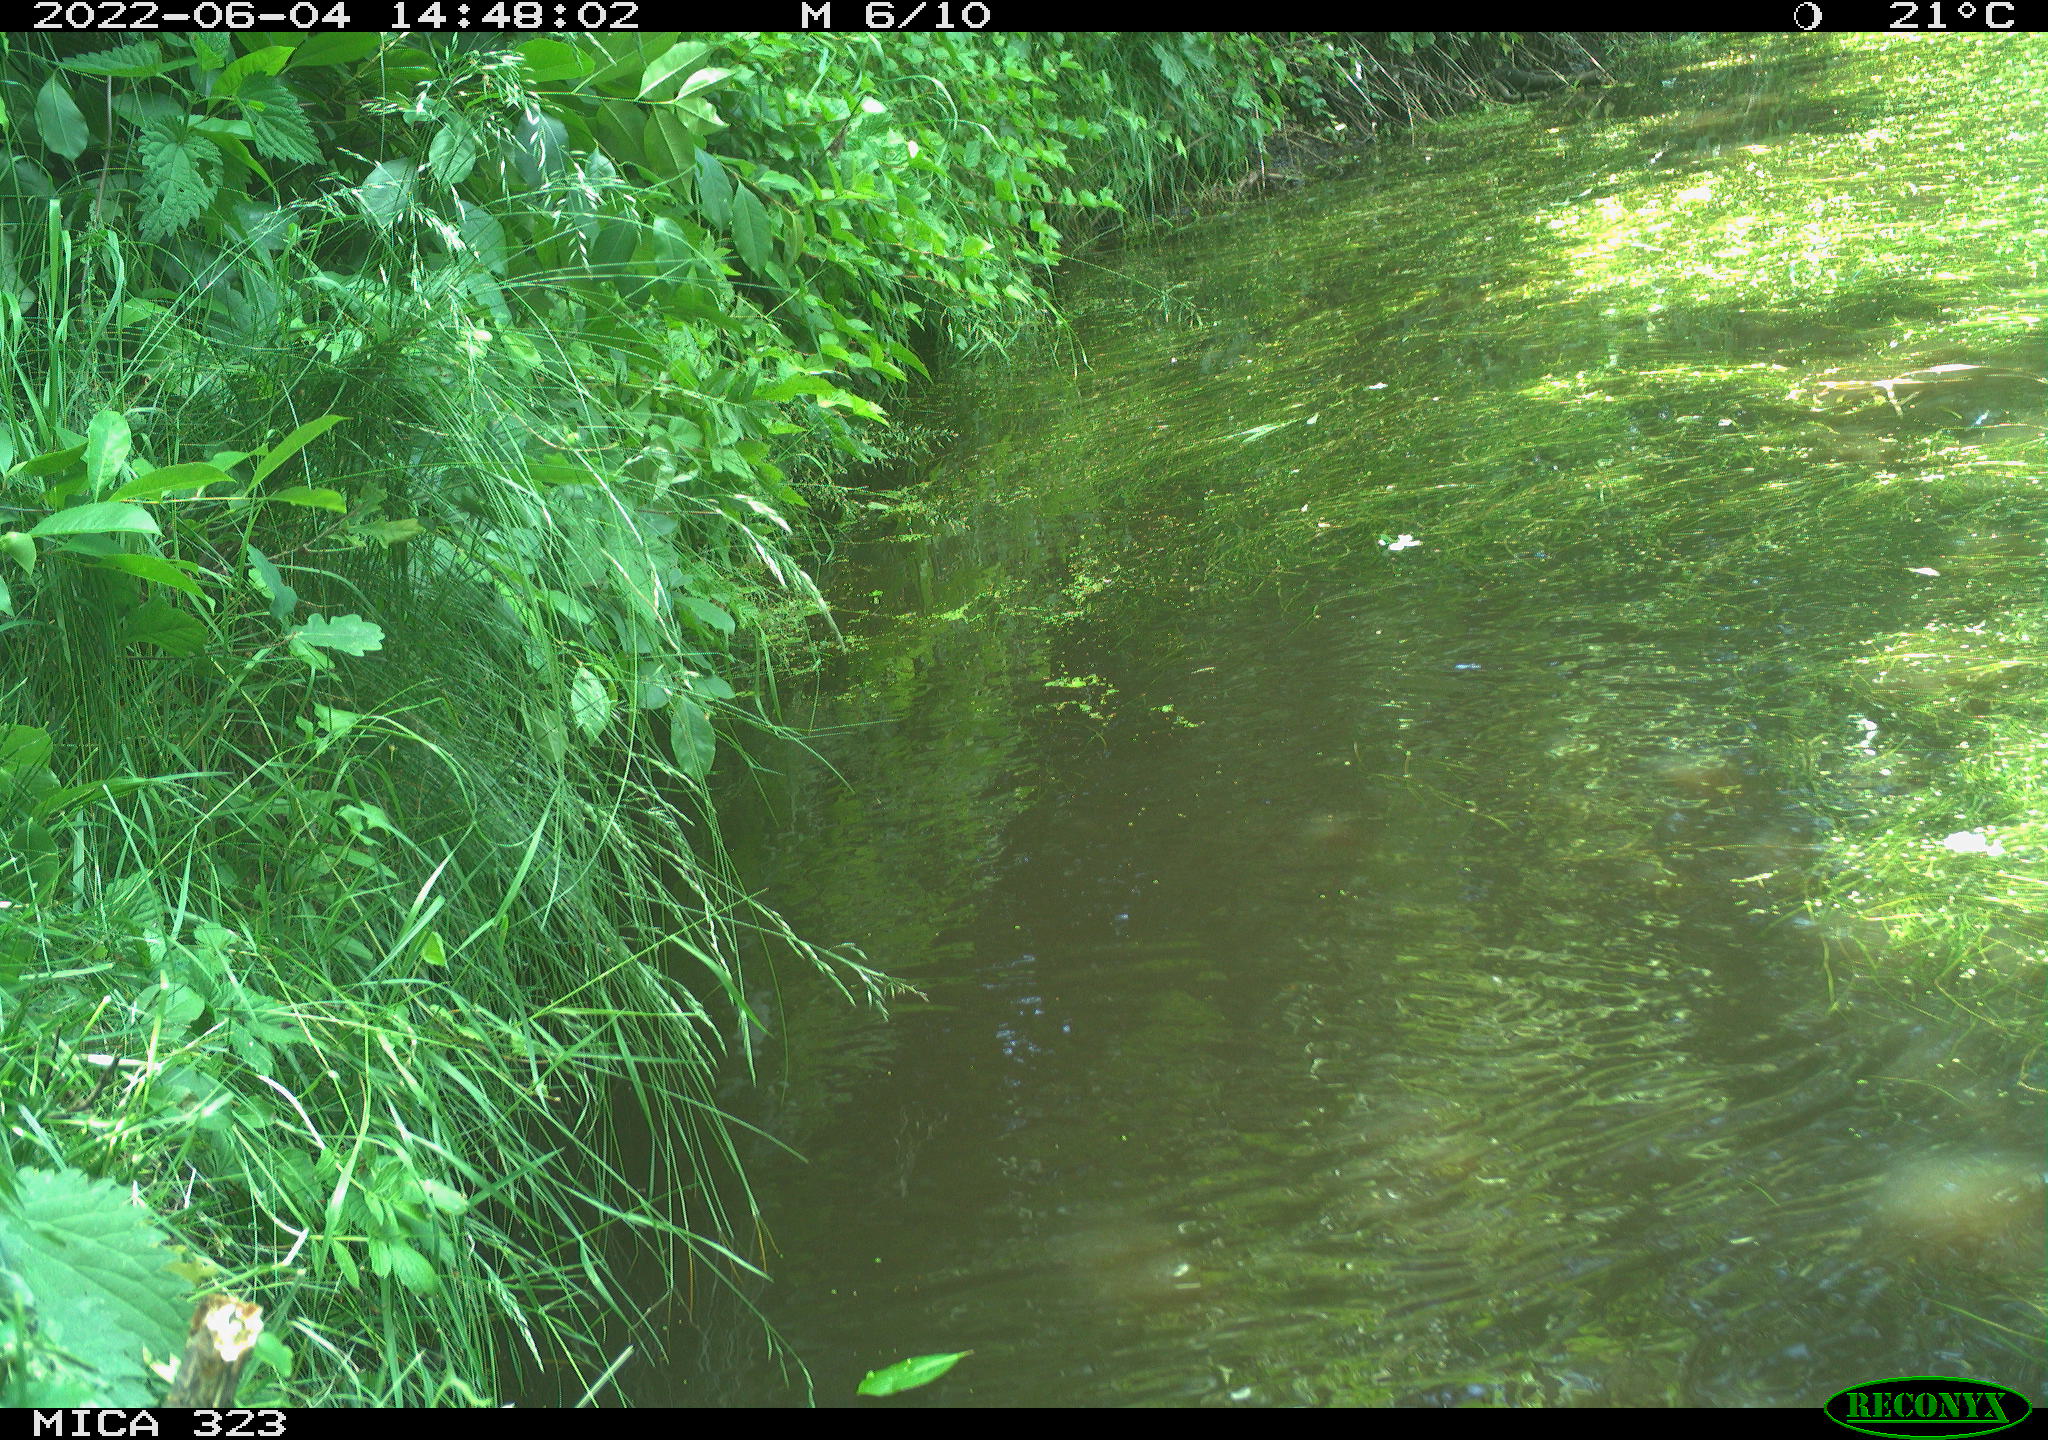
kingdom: Animalia
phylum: Chordata
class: Aves
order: Anseriformes
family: Anatidae
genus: Anas
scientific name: Anas
